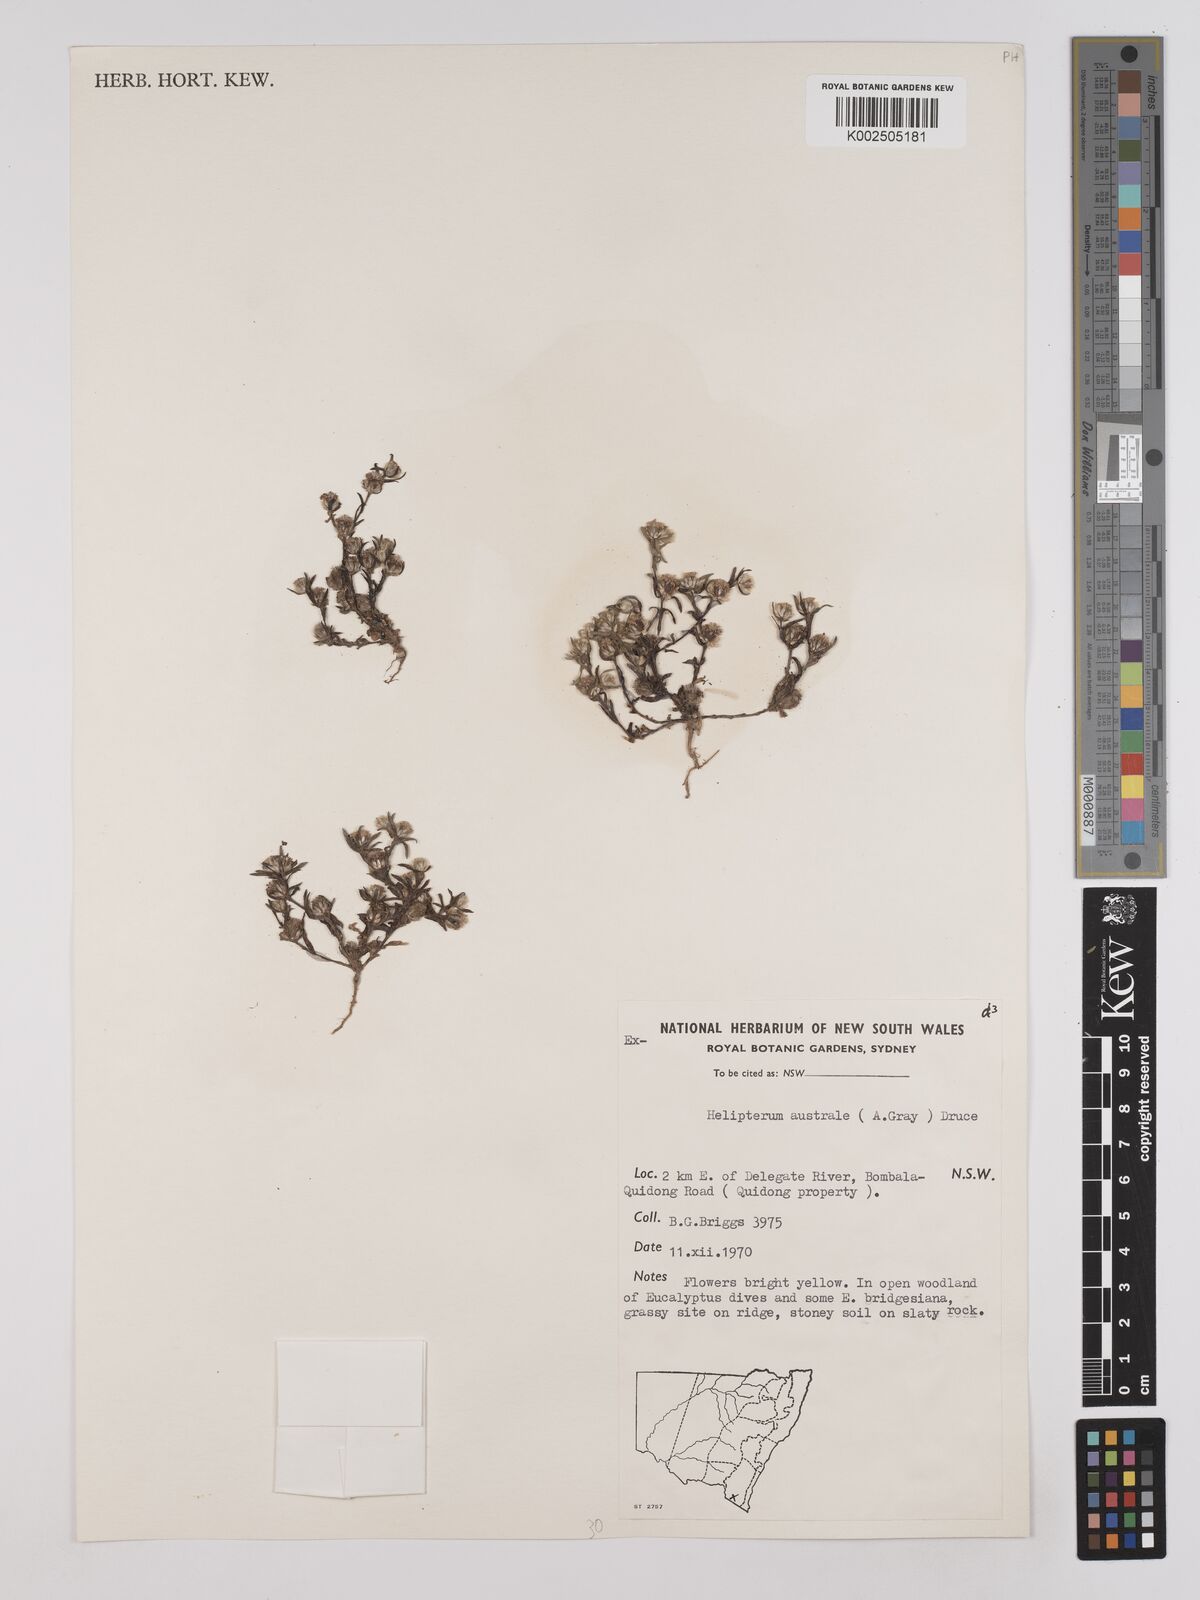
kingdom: Plantae
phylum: Tracheophyta
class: Magnoliopsida
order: Asterales
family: Asteraceae
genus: Triptilodiscus
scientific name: Triptilodiscus pygmaeus
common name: Common sunray
